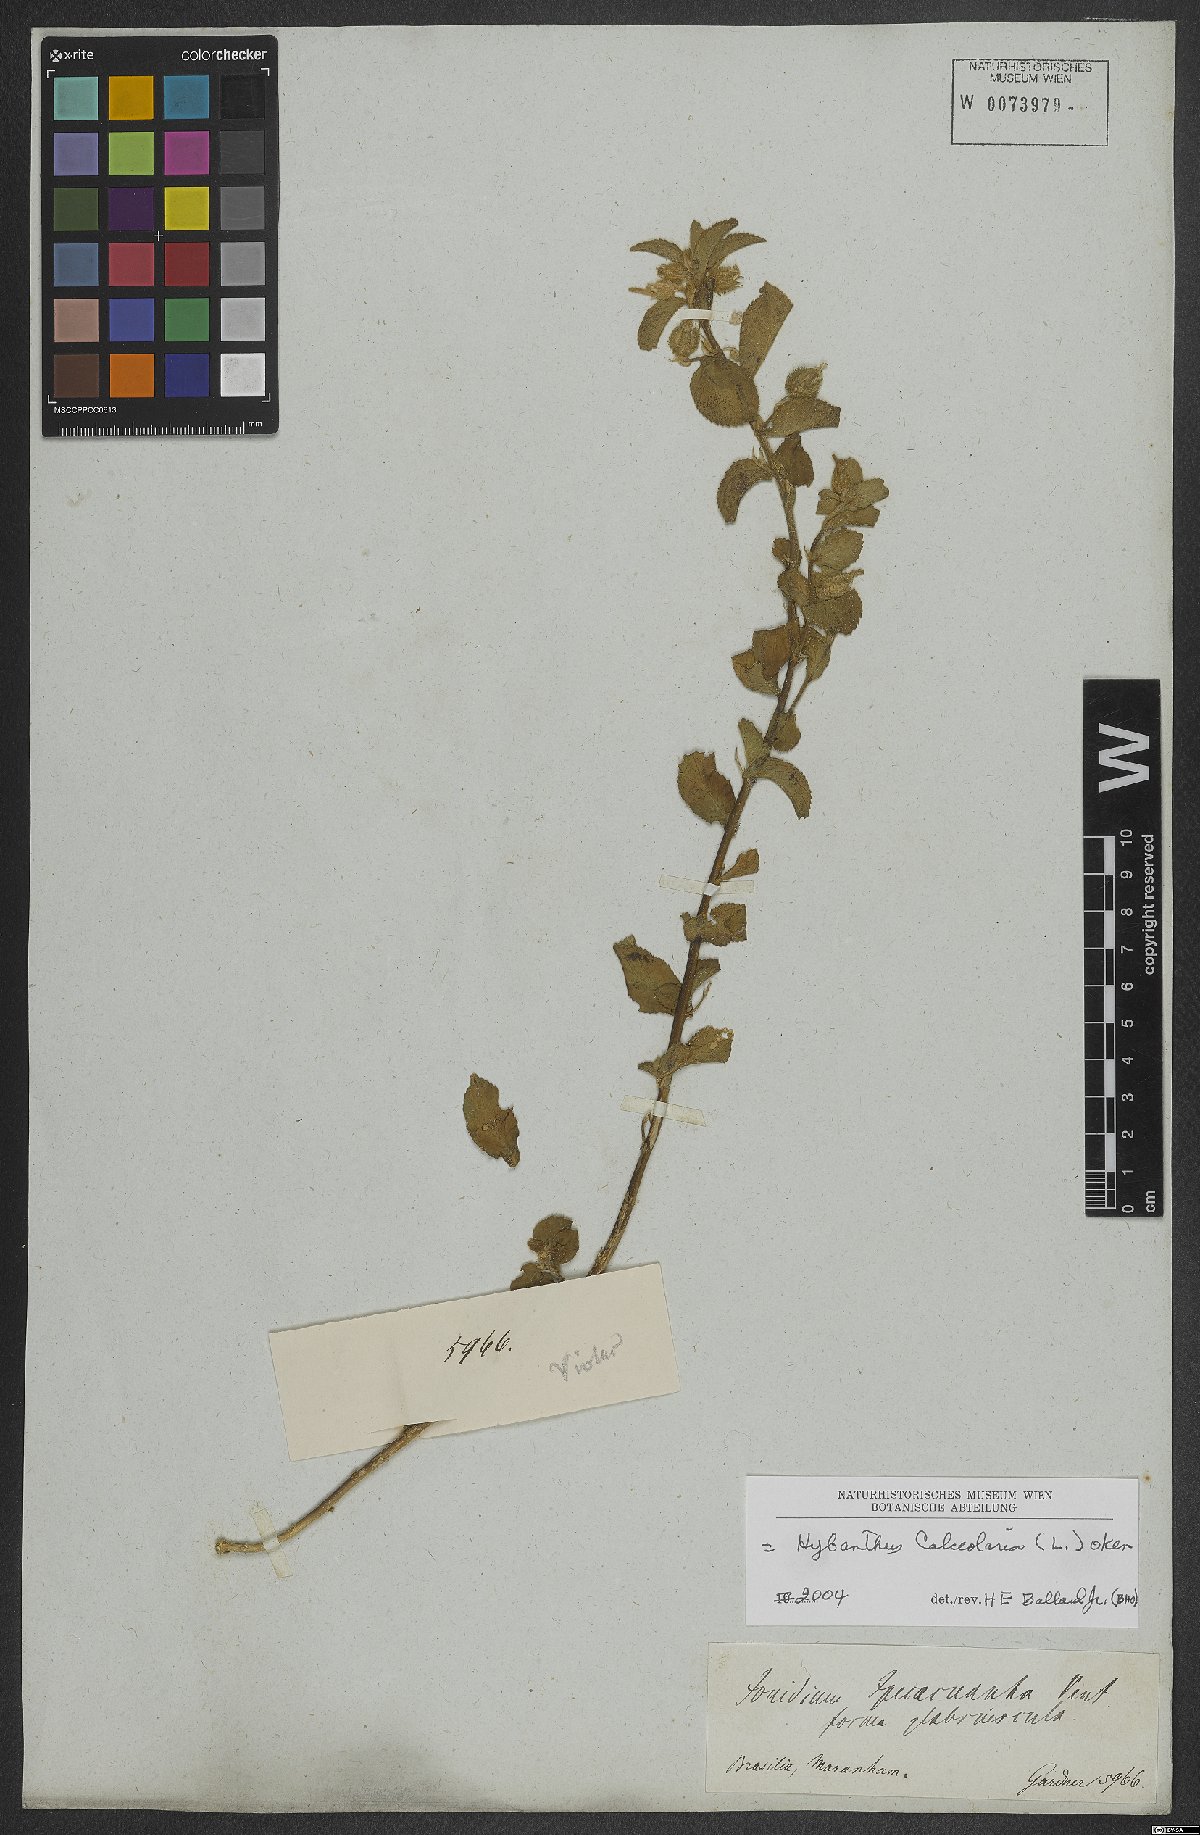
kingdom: Plantae
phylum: Tracheophyta
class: Magnoliopsida
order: Malpighiales
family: Violaceae
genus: Pombalia
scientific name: Pombalia calceolaria
